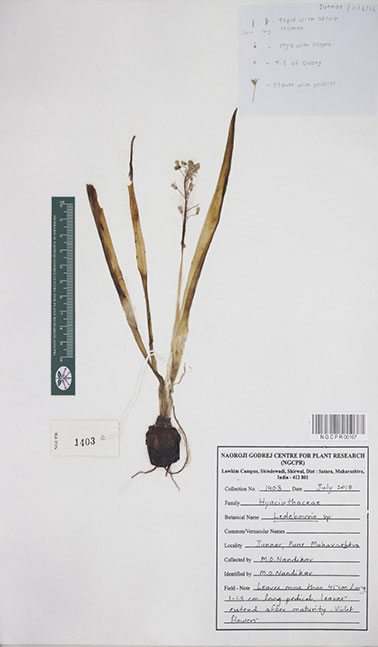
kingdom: Plantae
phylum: Tracheophyta
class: Liliopsida
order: Asparagales
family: Asparagaceae
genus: Ledebouria
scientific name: Ledebouria
